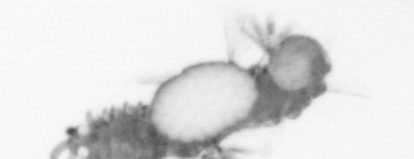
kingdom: Animalia
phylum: Annelida
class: Polychaeta
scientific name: Polychaeta
